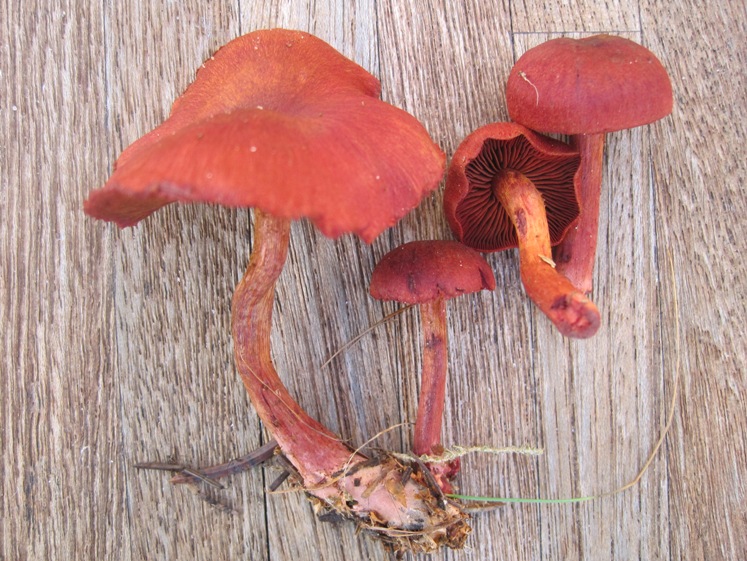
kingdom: Fungi
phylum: Basidiomycota
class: Agaricomycetes
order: Agaricales
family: Cortinariaceae
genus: Cortinarius
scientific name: Cortinarius sanguineus
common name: blodrød slørhat
